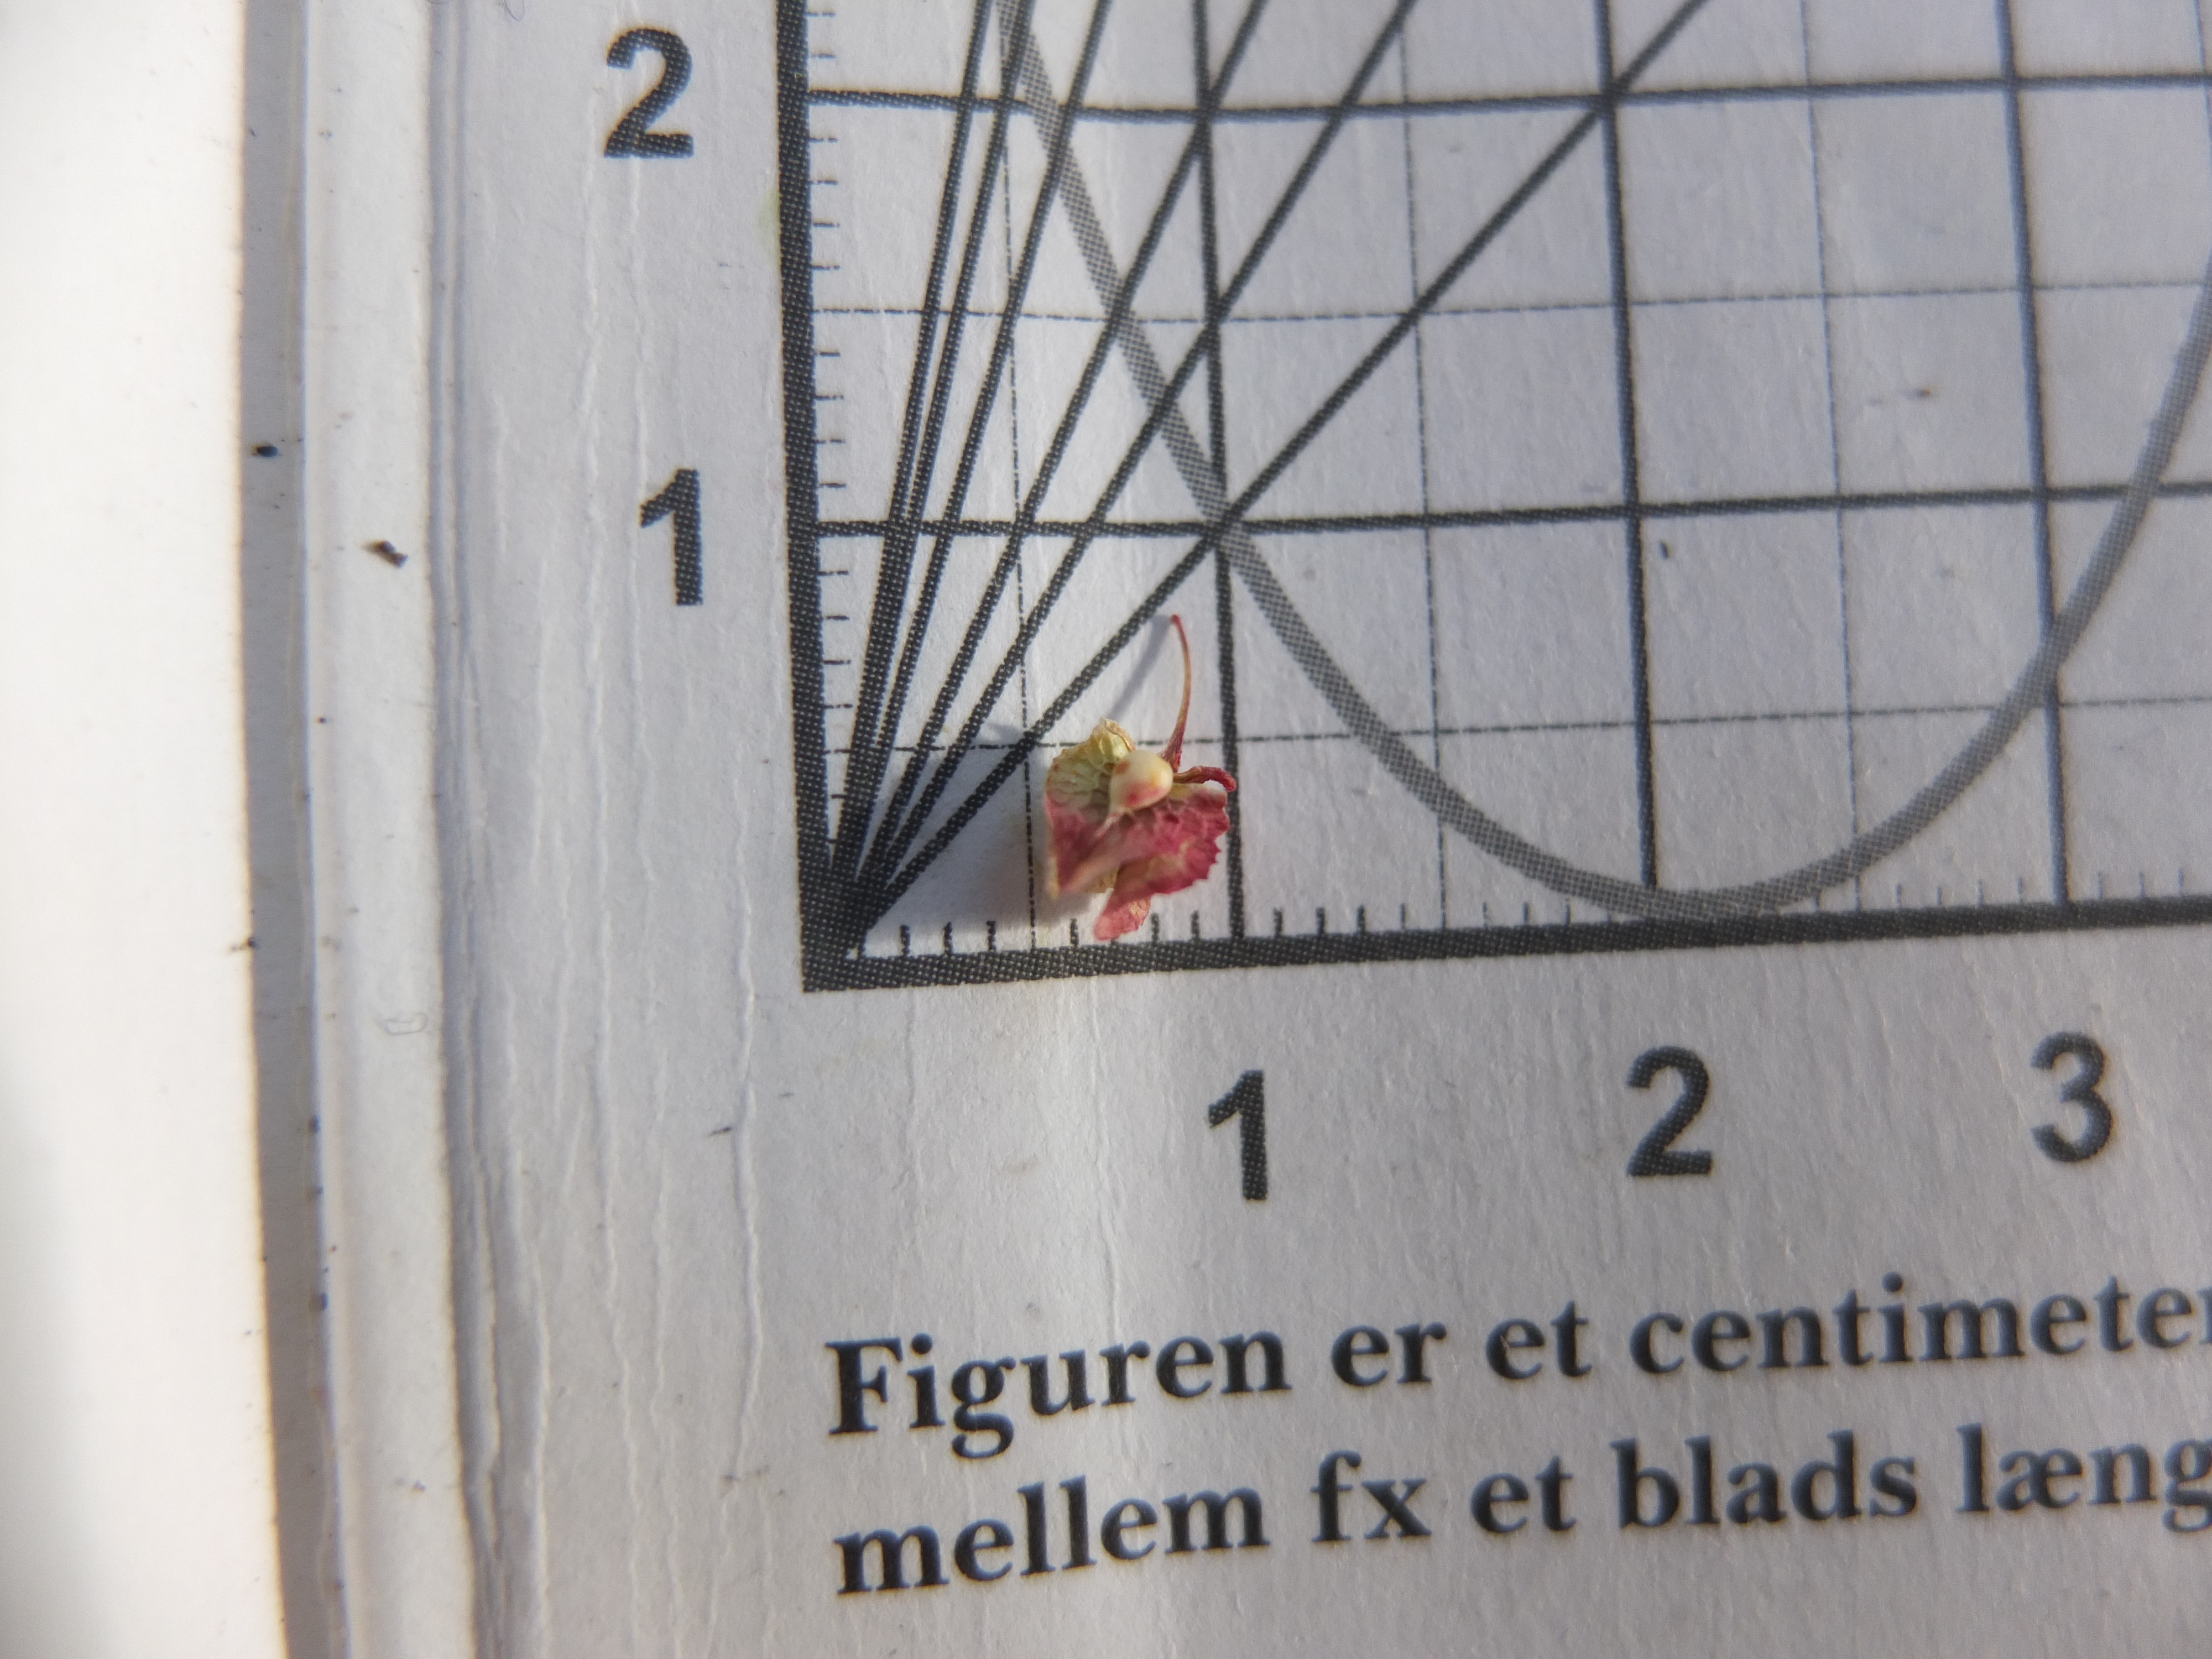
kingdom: Plantae
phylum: Tracheophyta
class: Magnoliopsida
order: Caryophyllales
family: Polygonaceae
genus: Rumex
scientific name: Rumex crispus
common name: Kruset skræppe
